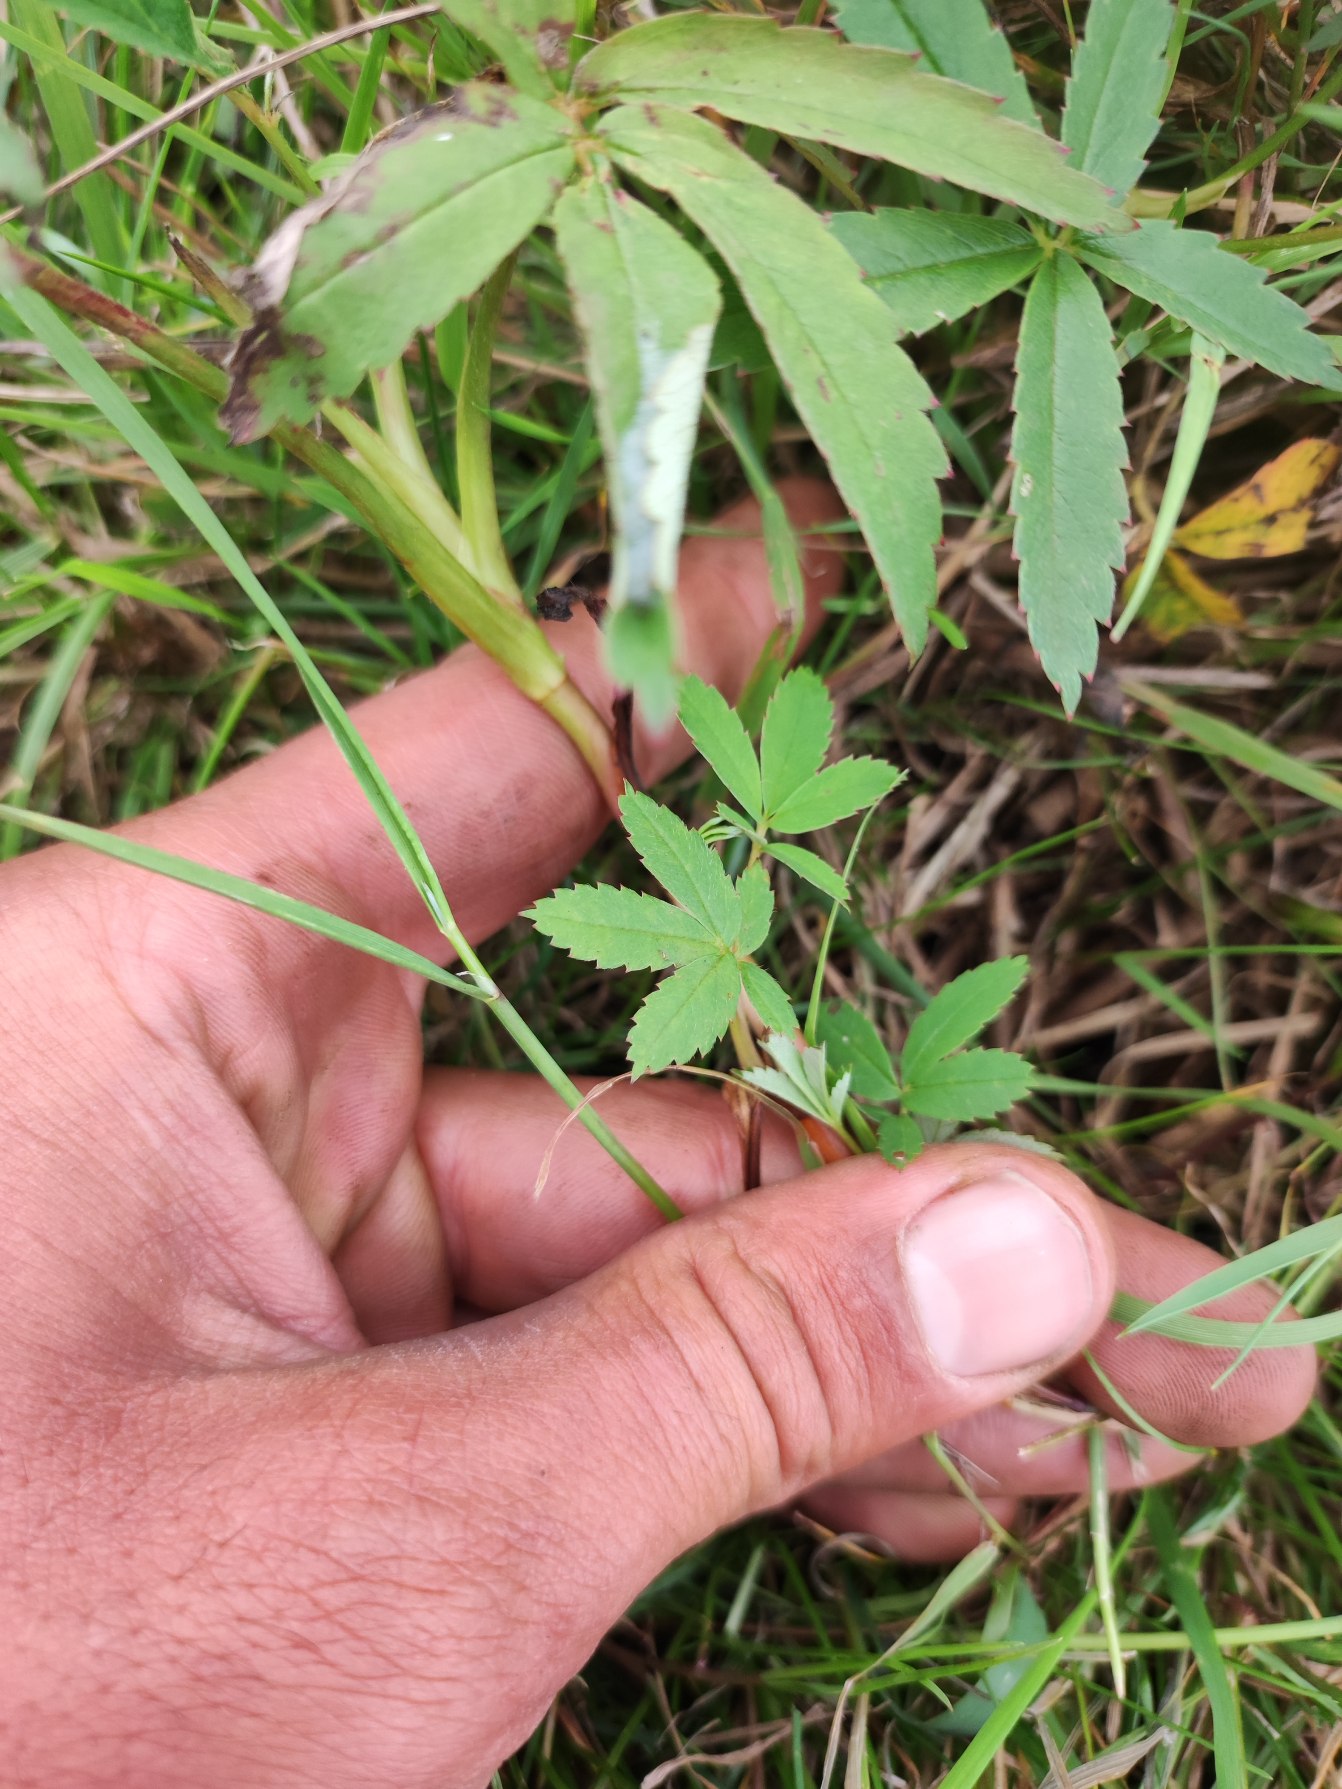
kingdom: Plantae
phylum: Tracheophyta
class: Magnoliopsida
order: Rosales
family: Rosaceae
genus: Comarum
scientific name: Comarum palustre
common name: Kragefod
